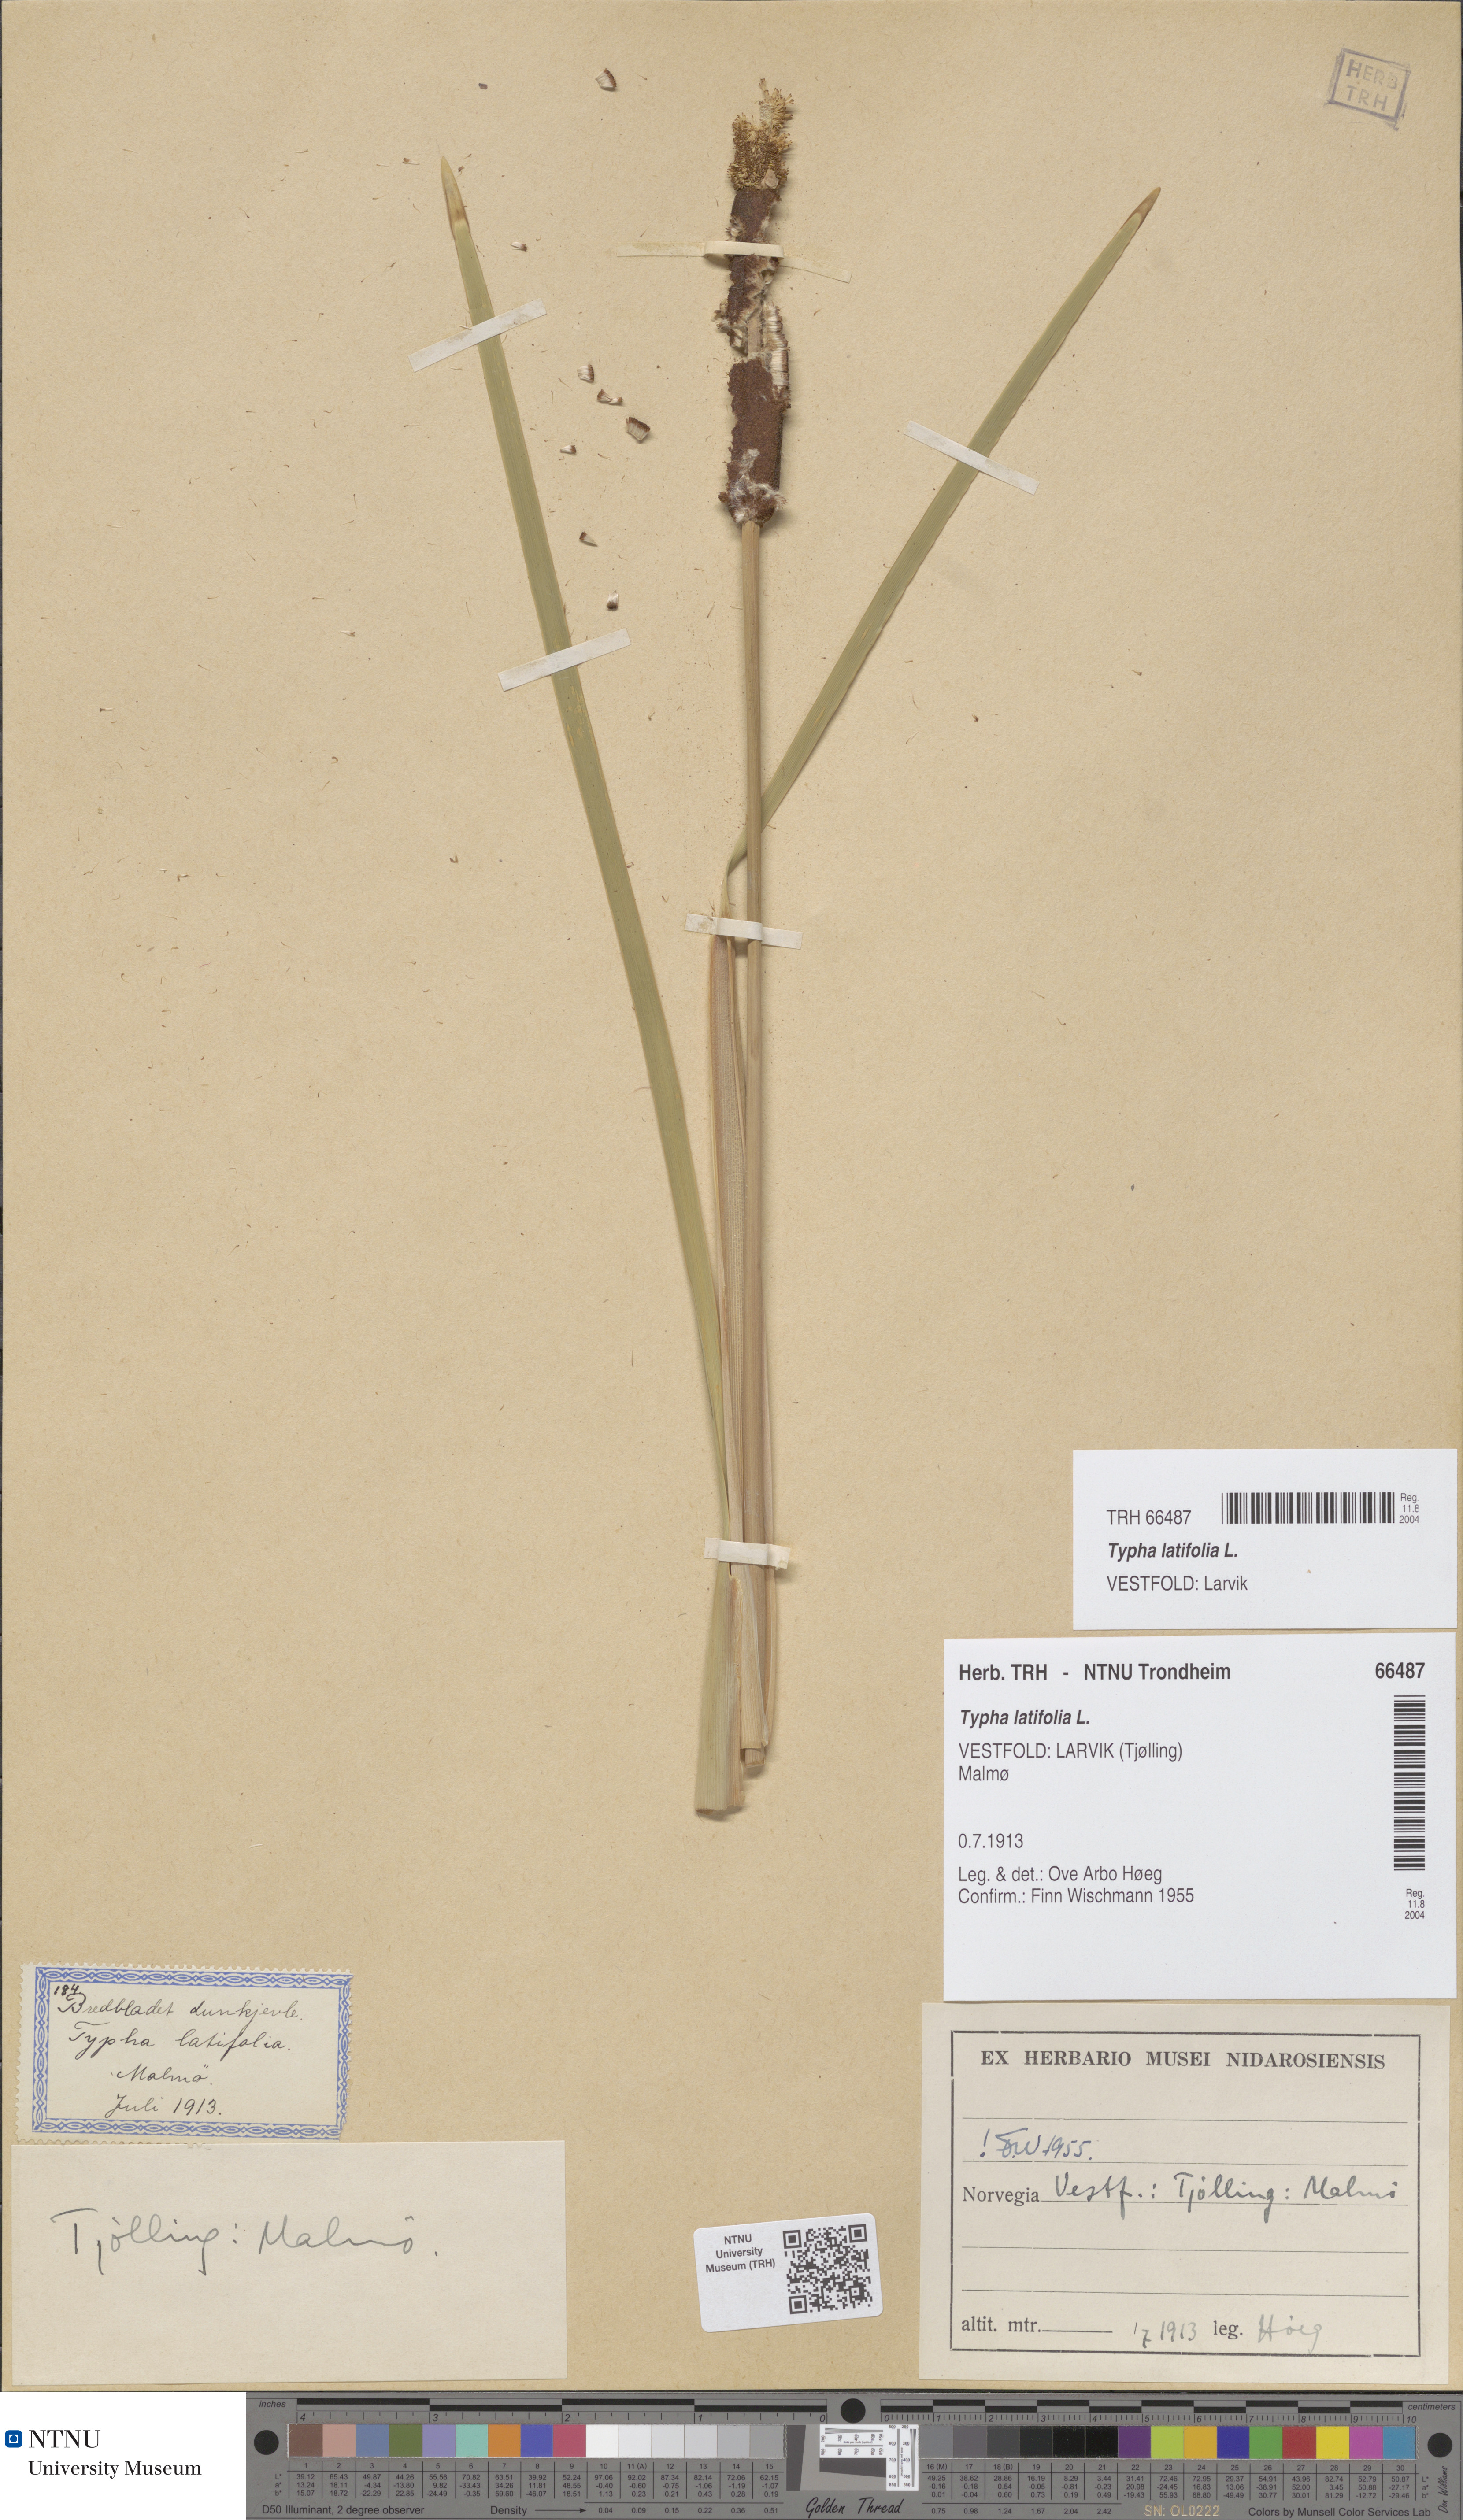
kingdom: Plantae
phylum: Tracheophyta
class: Liliopsida
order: Poales
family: Typhaceae
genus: Typha
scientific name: Typha latifolia
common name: Broadleaf cattail
